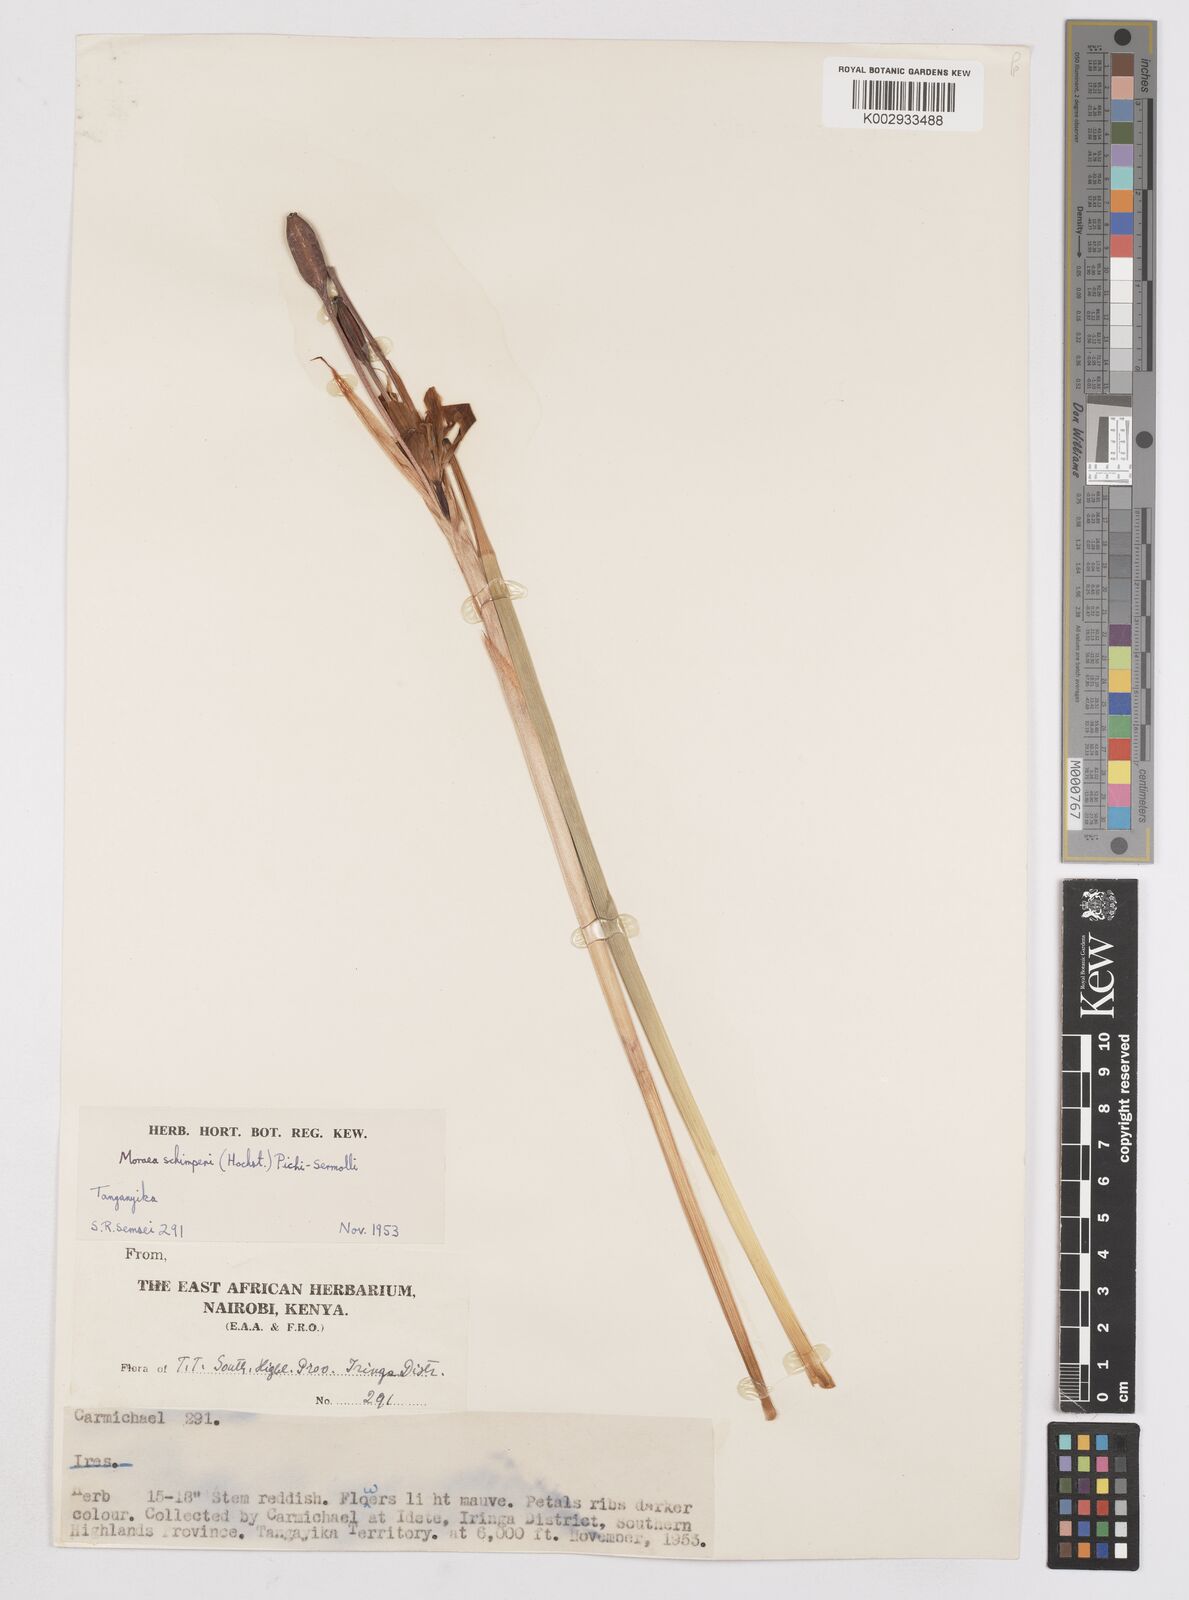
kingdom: Plantae
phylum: Tracheophyta
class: Liliopsida
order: Asparagales
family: Iridaceae
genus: Moraea
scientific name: Moraea schimperi
